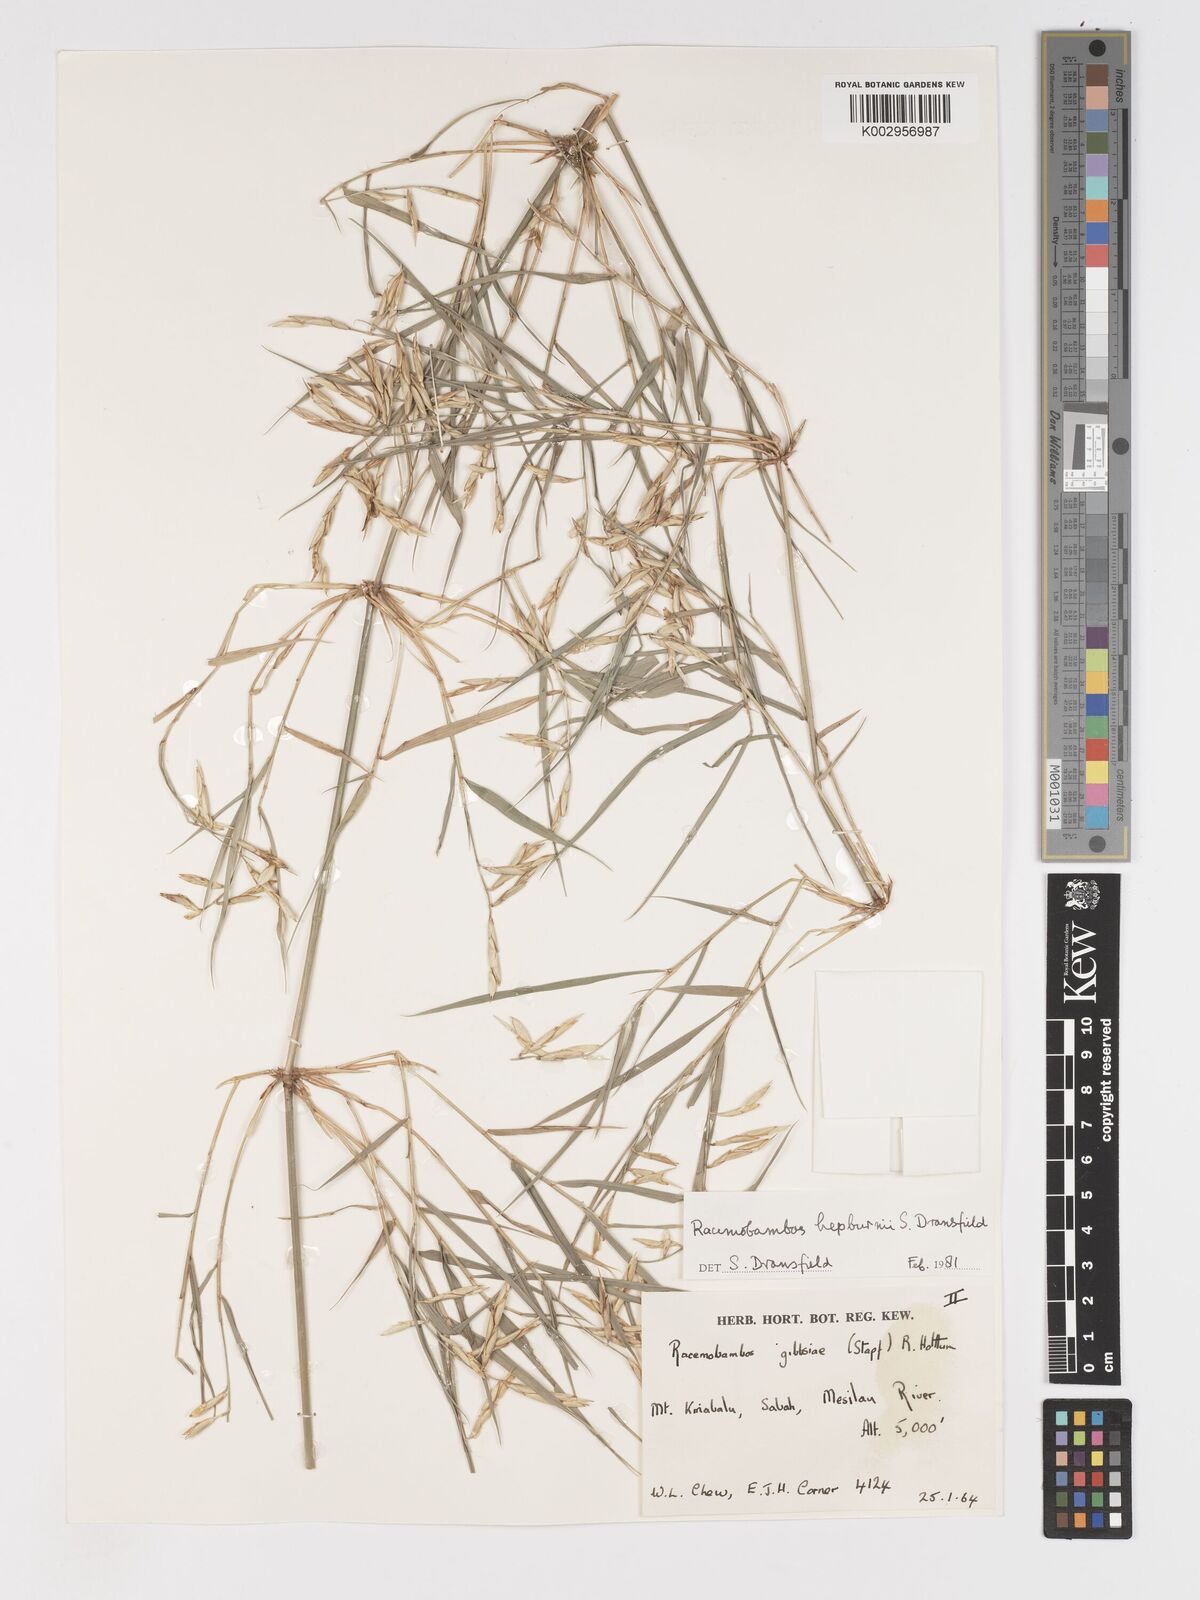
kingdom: Plantae
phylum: Tracheophyta
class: Liliopsida
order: Poales
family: Poaceae
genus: Racemobambos
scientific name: Racemobambos hepburnii
